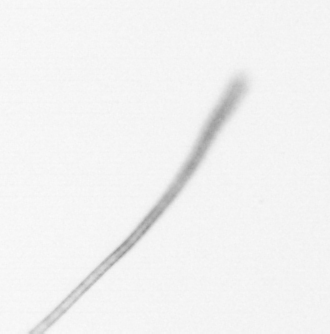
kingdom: Chromista
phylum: Ochrophyta
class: Bacillariophyceae
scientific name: Bacillariophyceae
